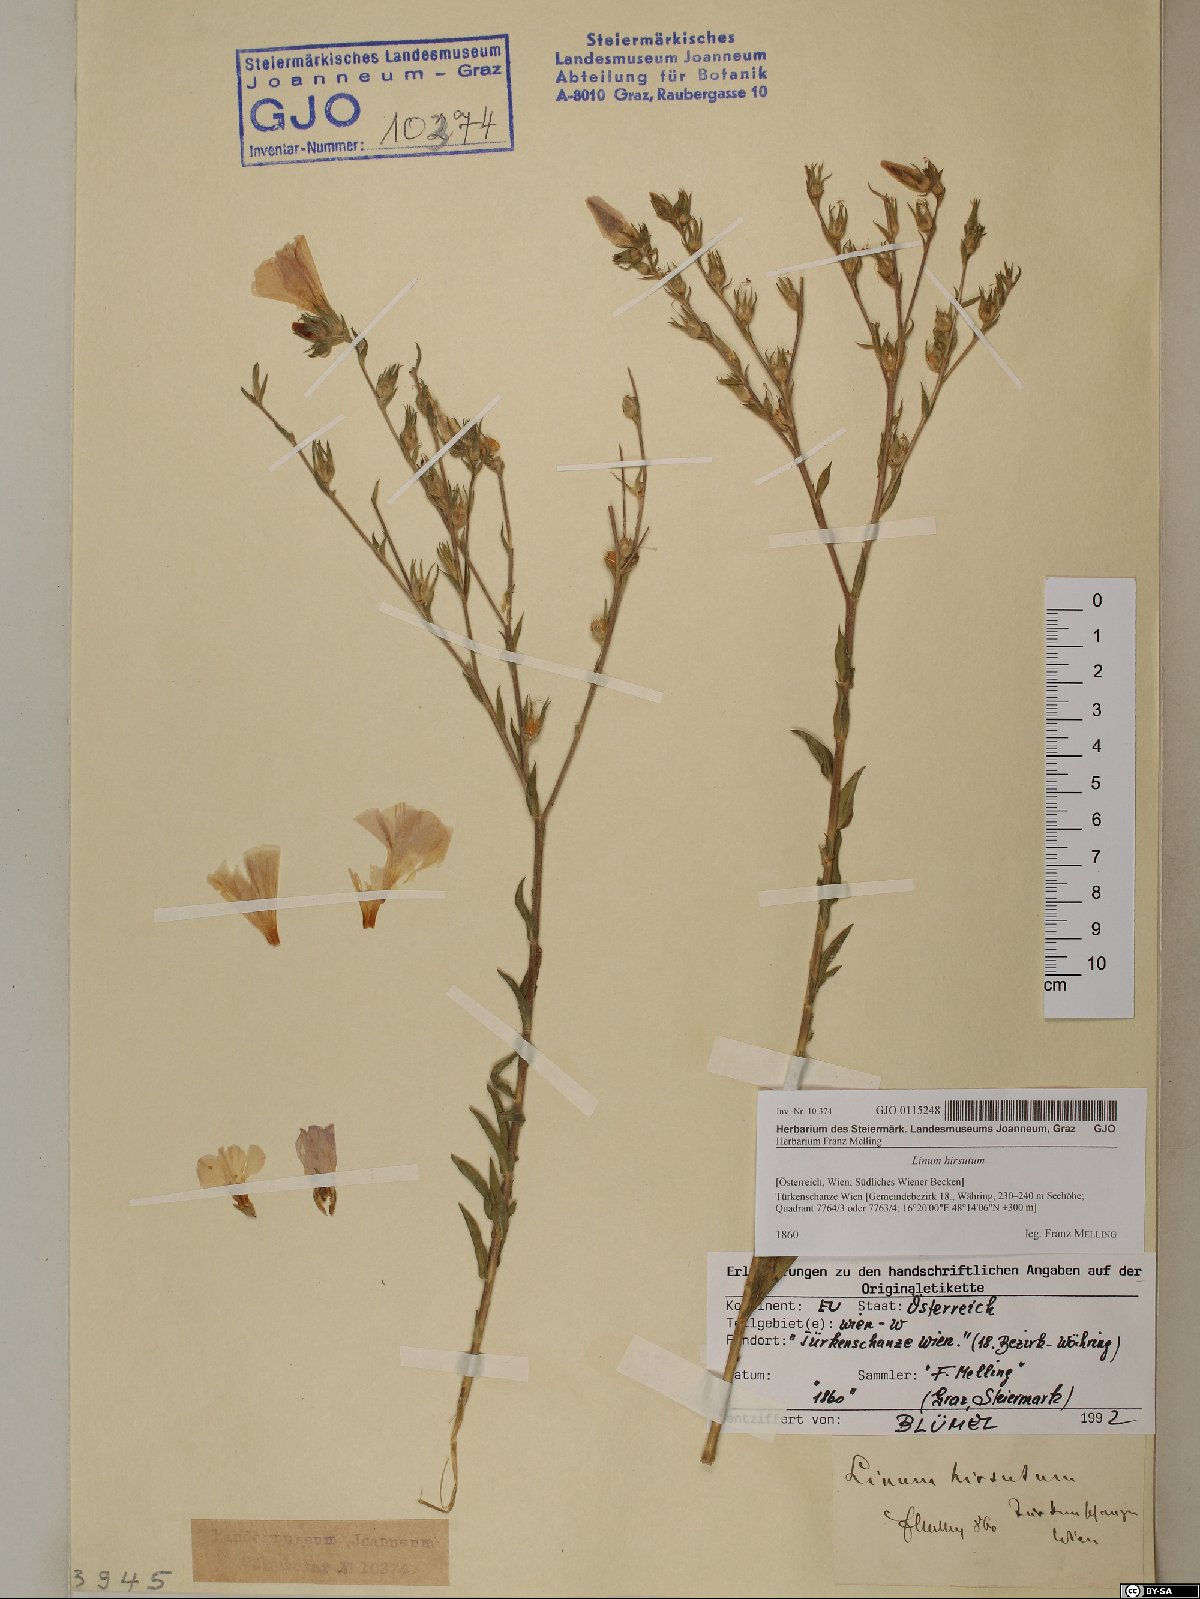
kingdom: Plantae
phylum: Tracheophyta
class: Magnoliopsida
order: Malpighiales
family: Linaceae
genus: Linum
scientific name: Linum hirsutum
